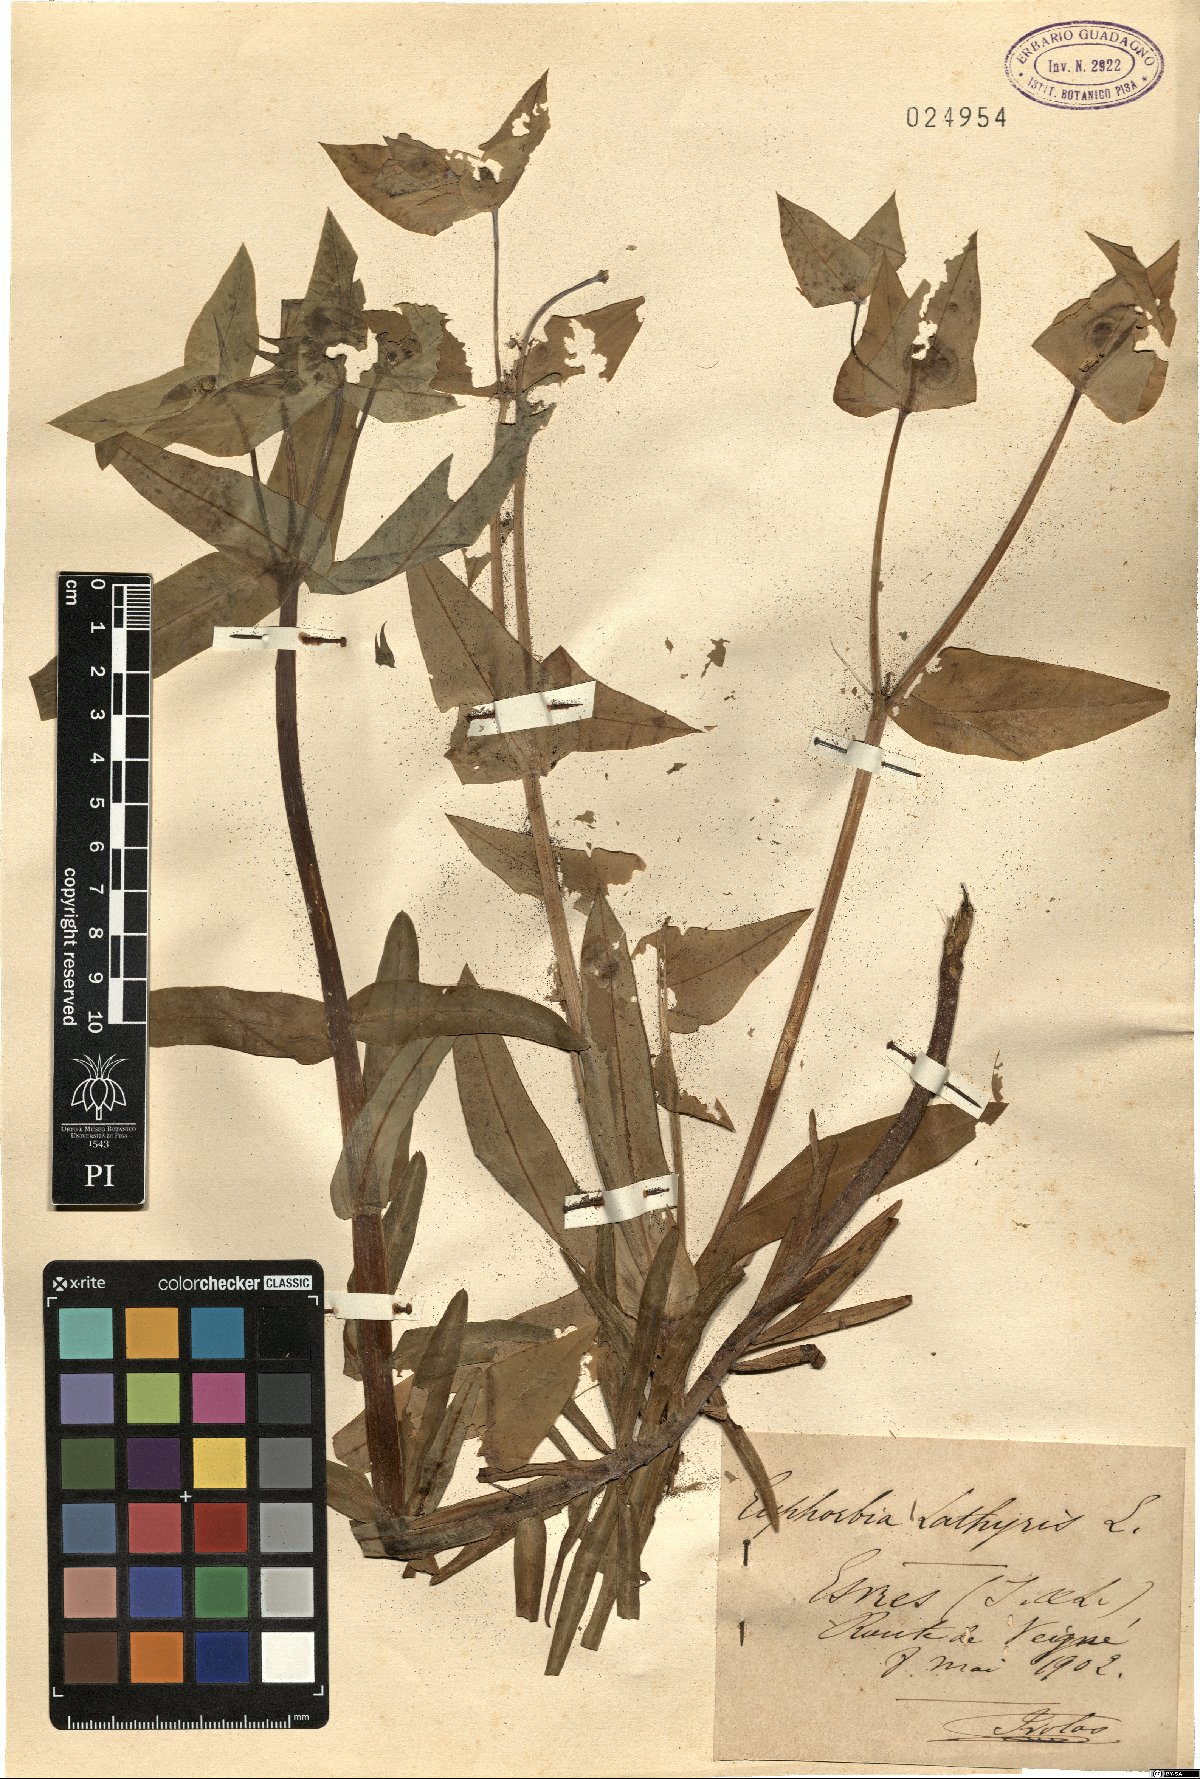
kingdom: Plantae
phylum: Tracheophyta
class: Magnoliopsida
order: Malpighiales
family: Euphorbiaceae
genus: Euphorbia
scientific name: Euphorbia lathyris
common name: Caper spurge
